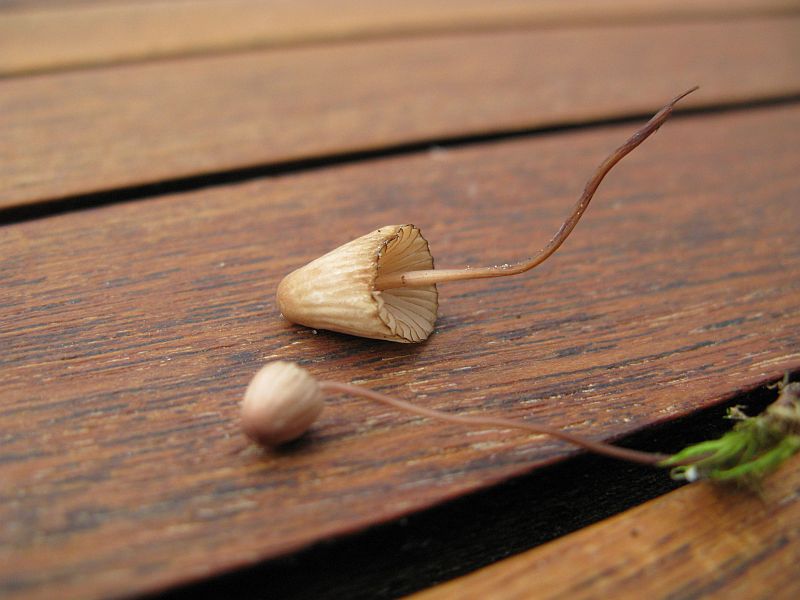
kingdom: Fungi
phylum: Basidiomycota
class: Agaricomycetes
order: Agaricales
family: Mycenaceae
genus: Mycena
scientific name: Mycena olivaceomarginata
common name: brunægget huesvamp
